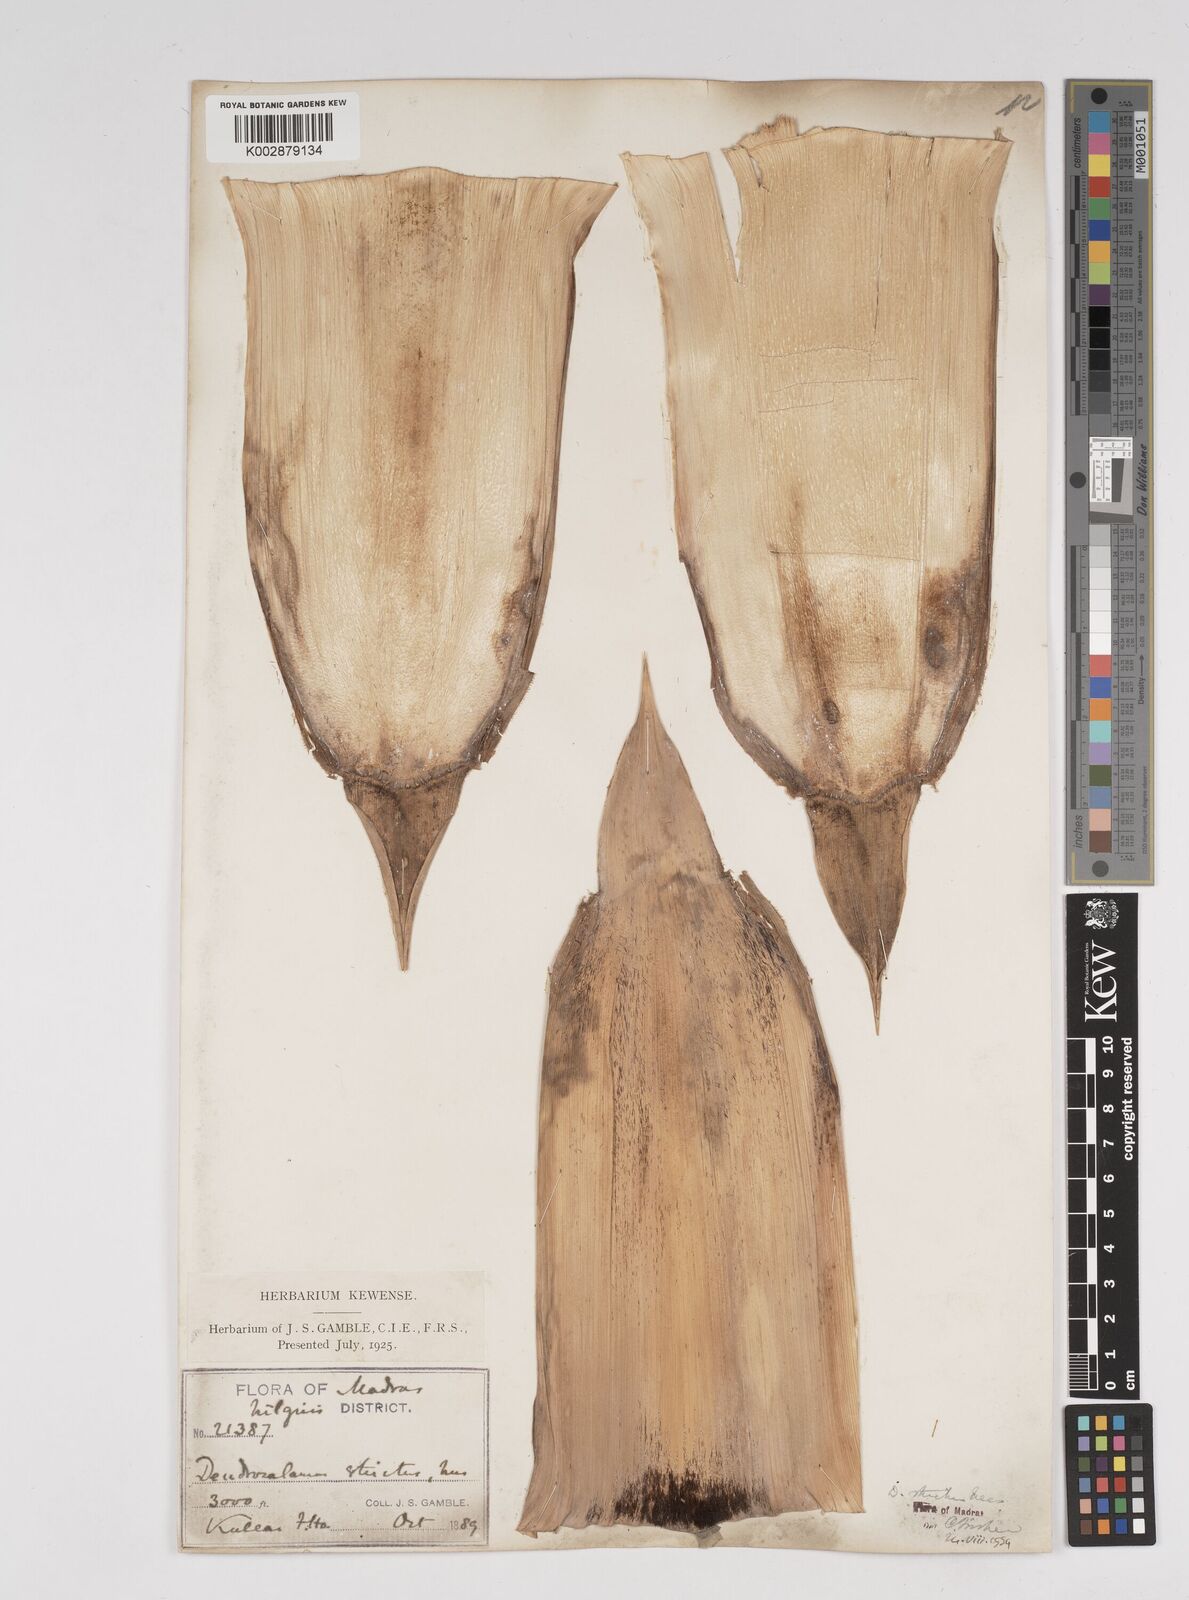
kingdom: Plantae
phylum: Tracheophyta
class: Liliopsida
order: Poales
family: Poaceae
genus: Dendrocalamus
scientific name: Dendrocalamus strictus
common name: Male bamboo
